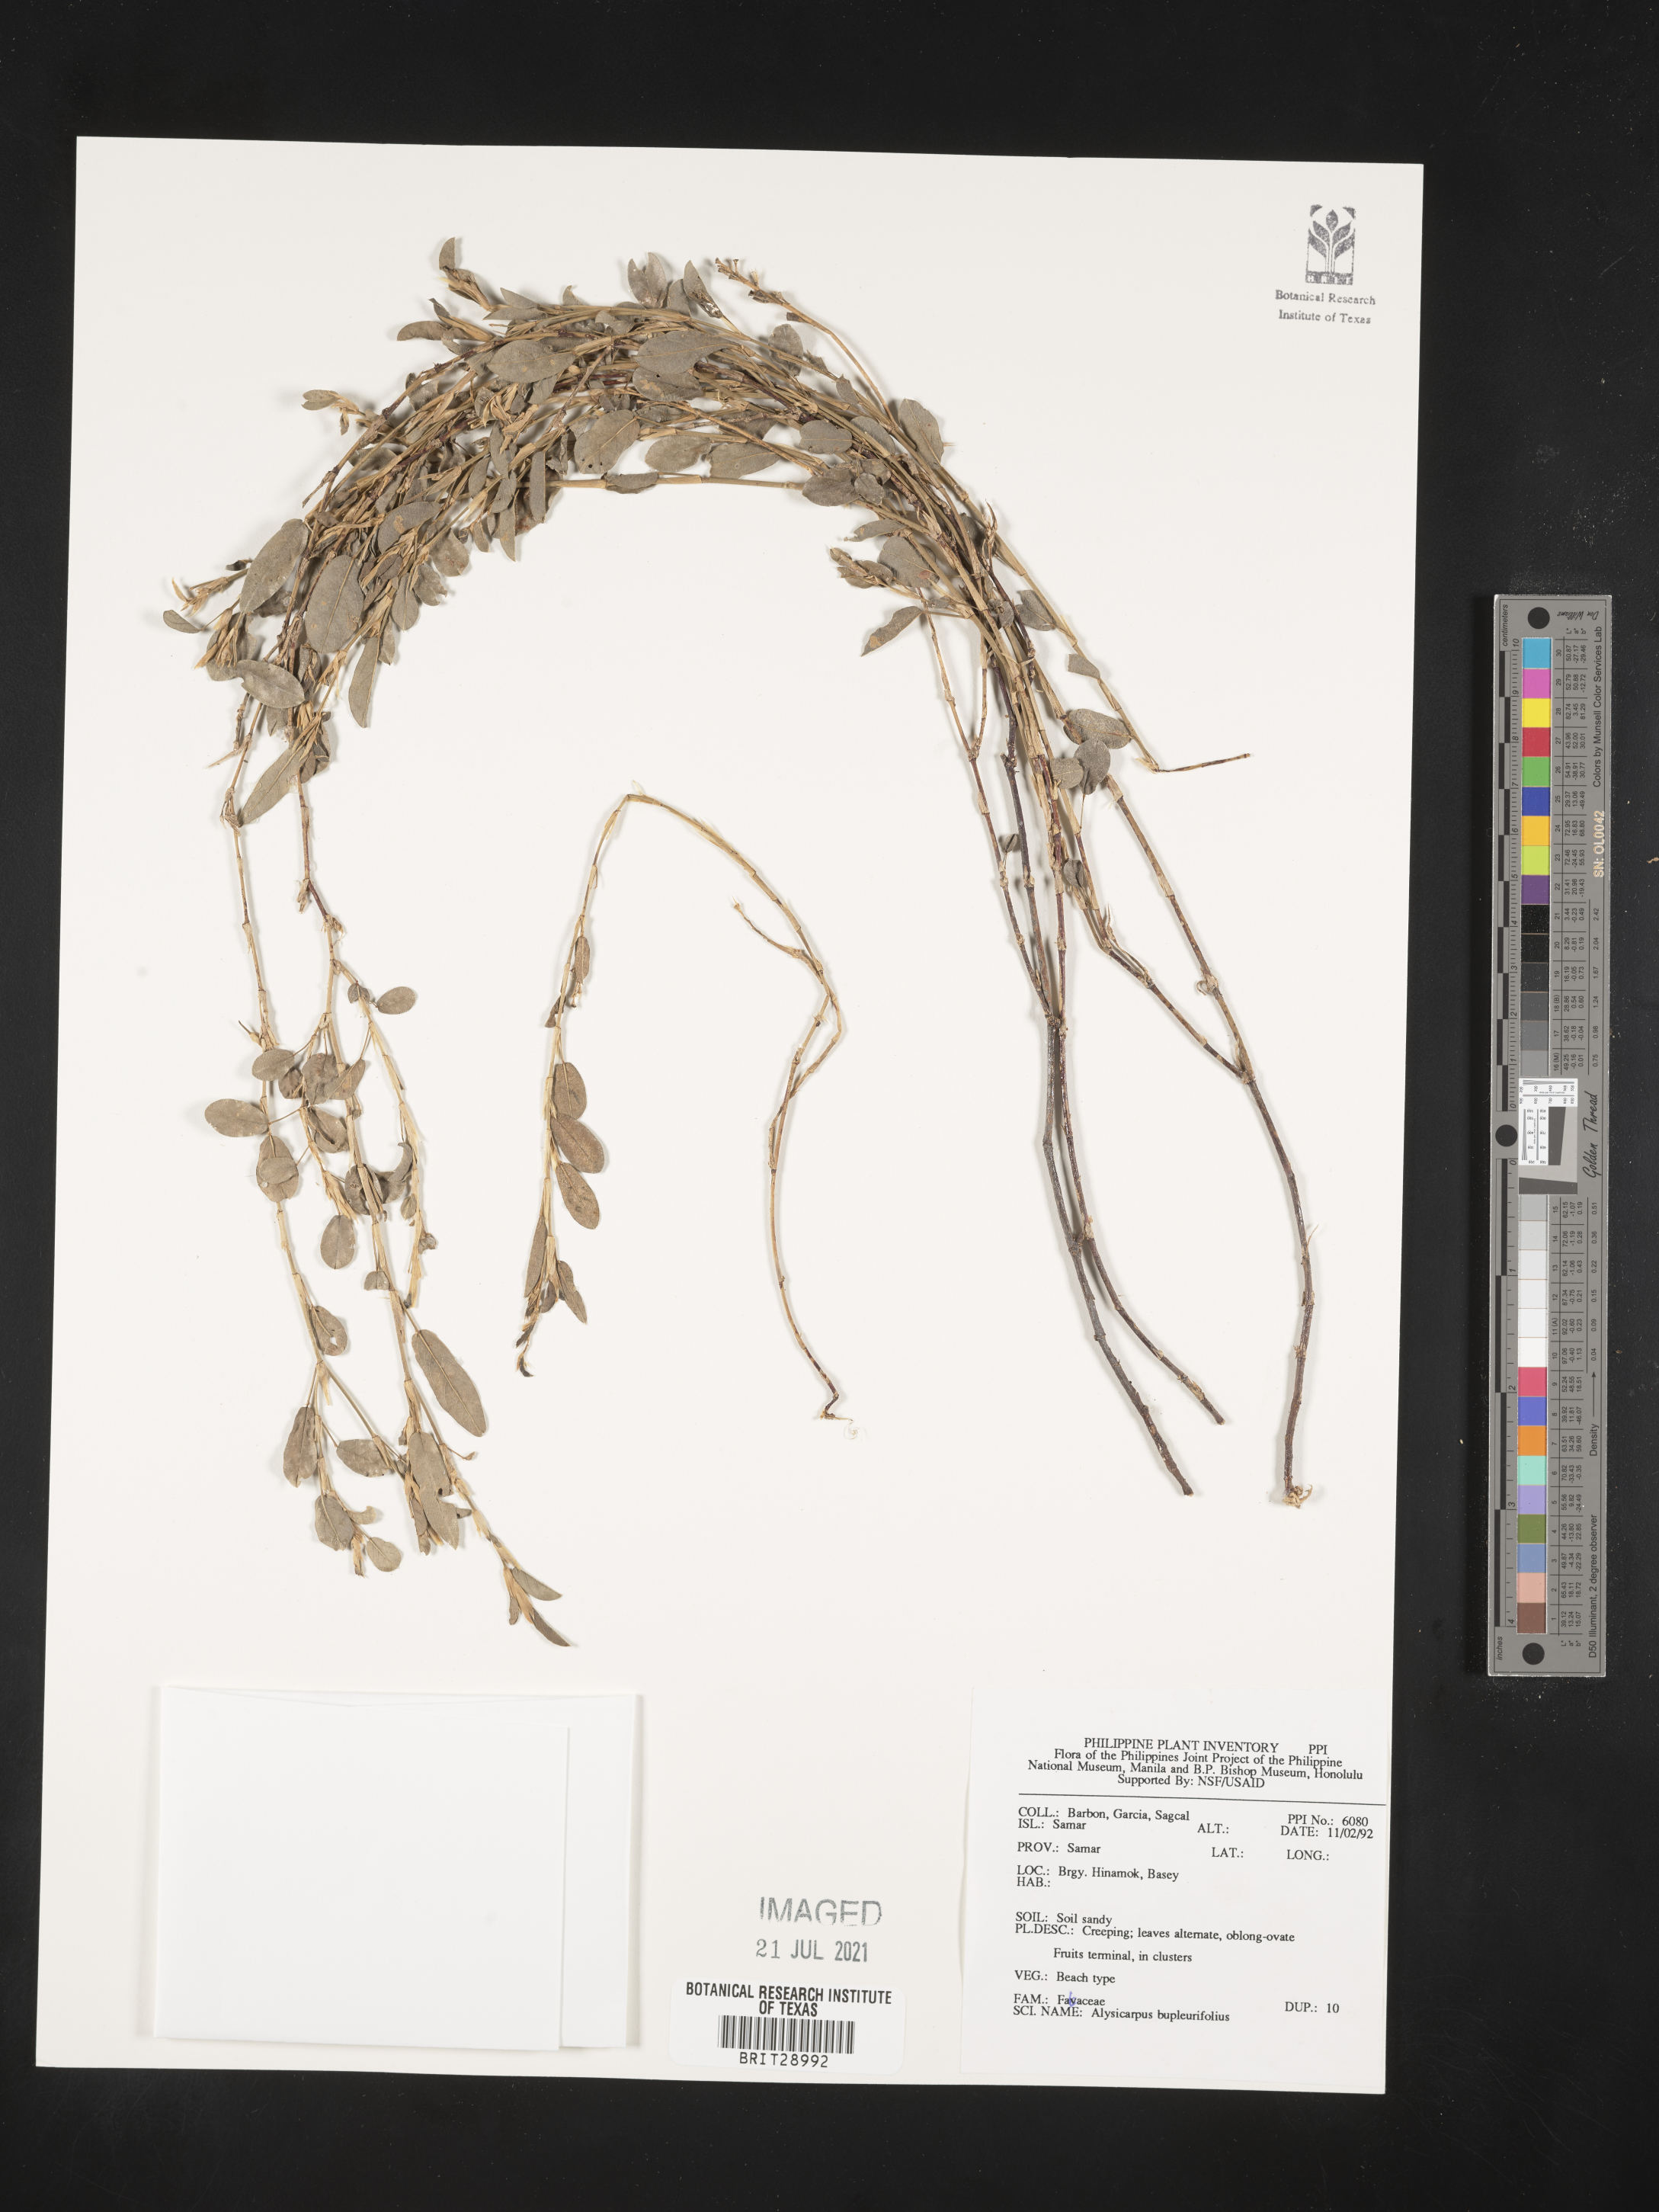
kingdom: Plantae
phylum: Tracheophyta
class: Magnoliopsida
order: Fabales
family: Fabaceae
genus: Alysicarpus
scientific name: Alysicarpus bupleurifolius
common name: Sweet alys
